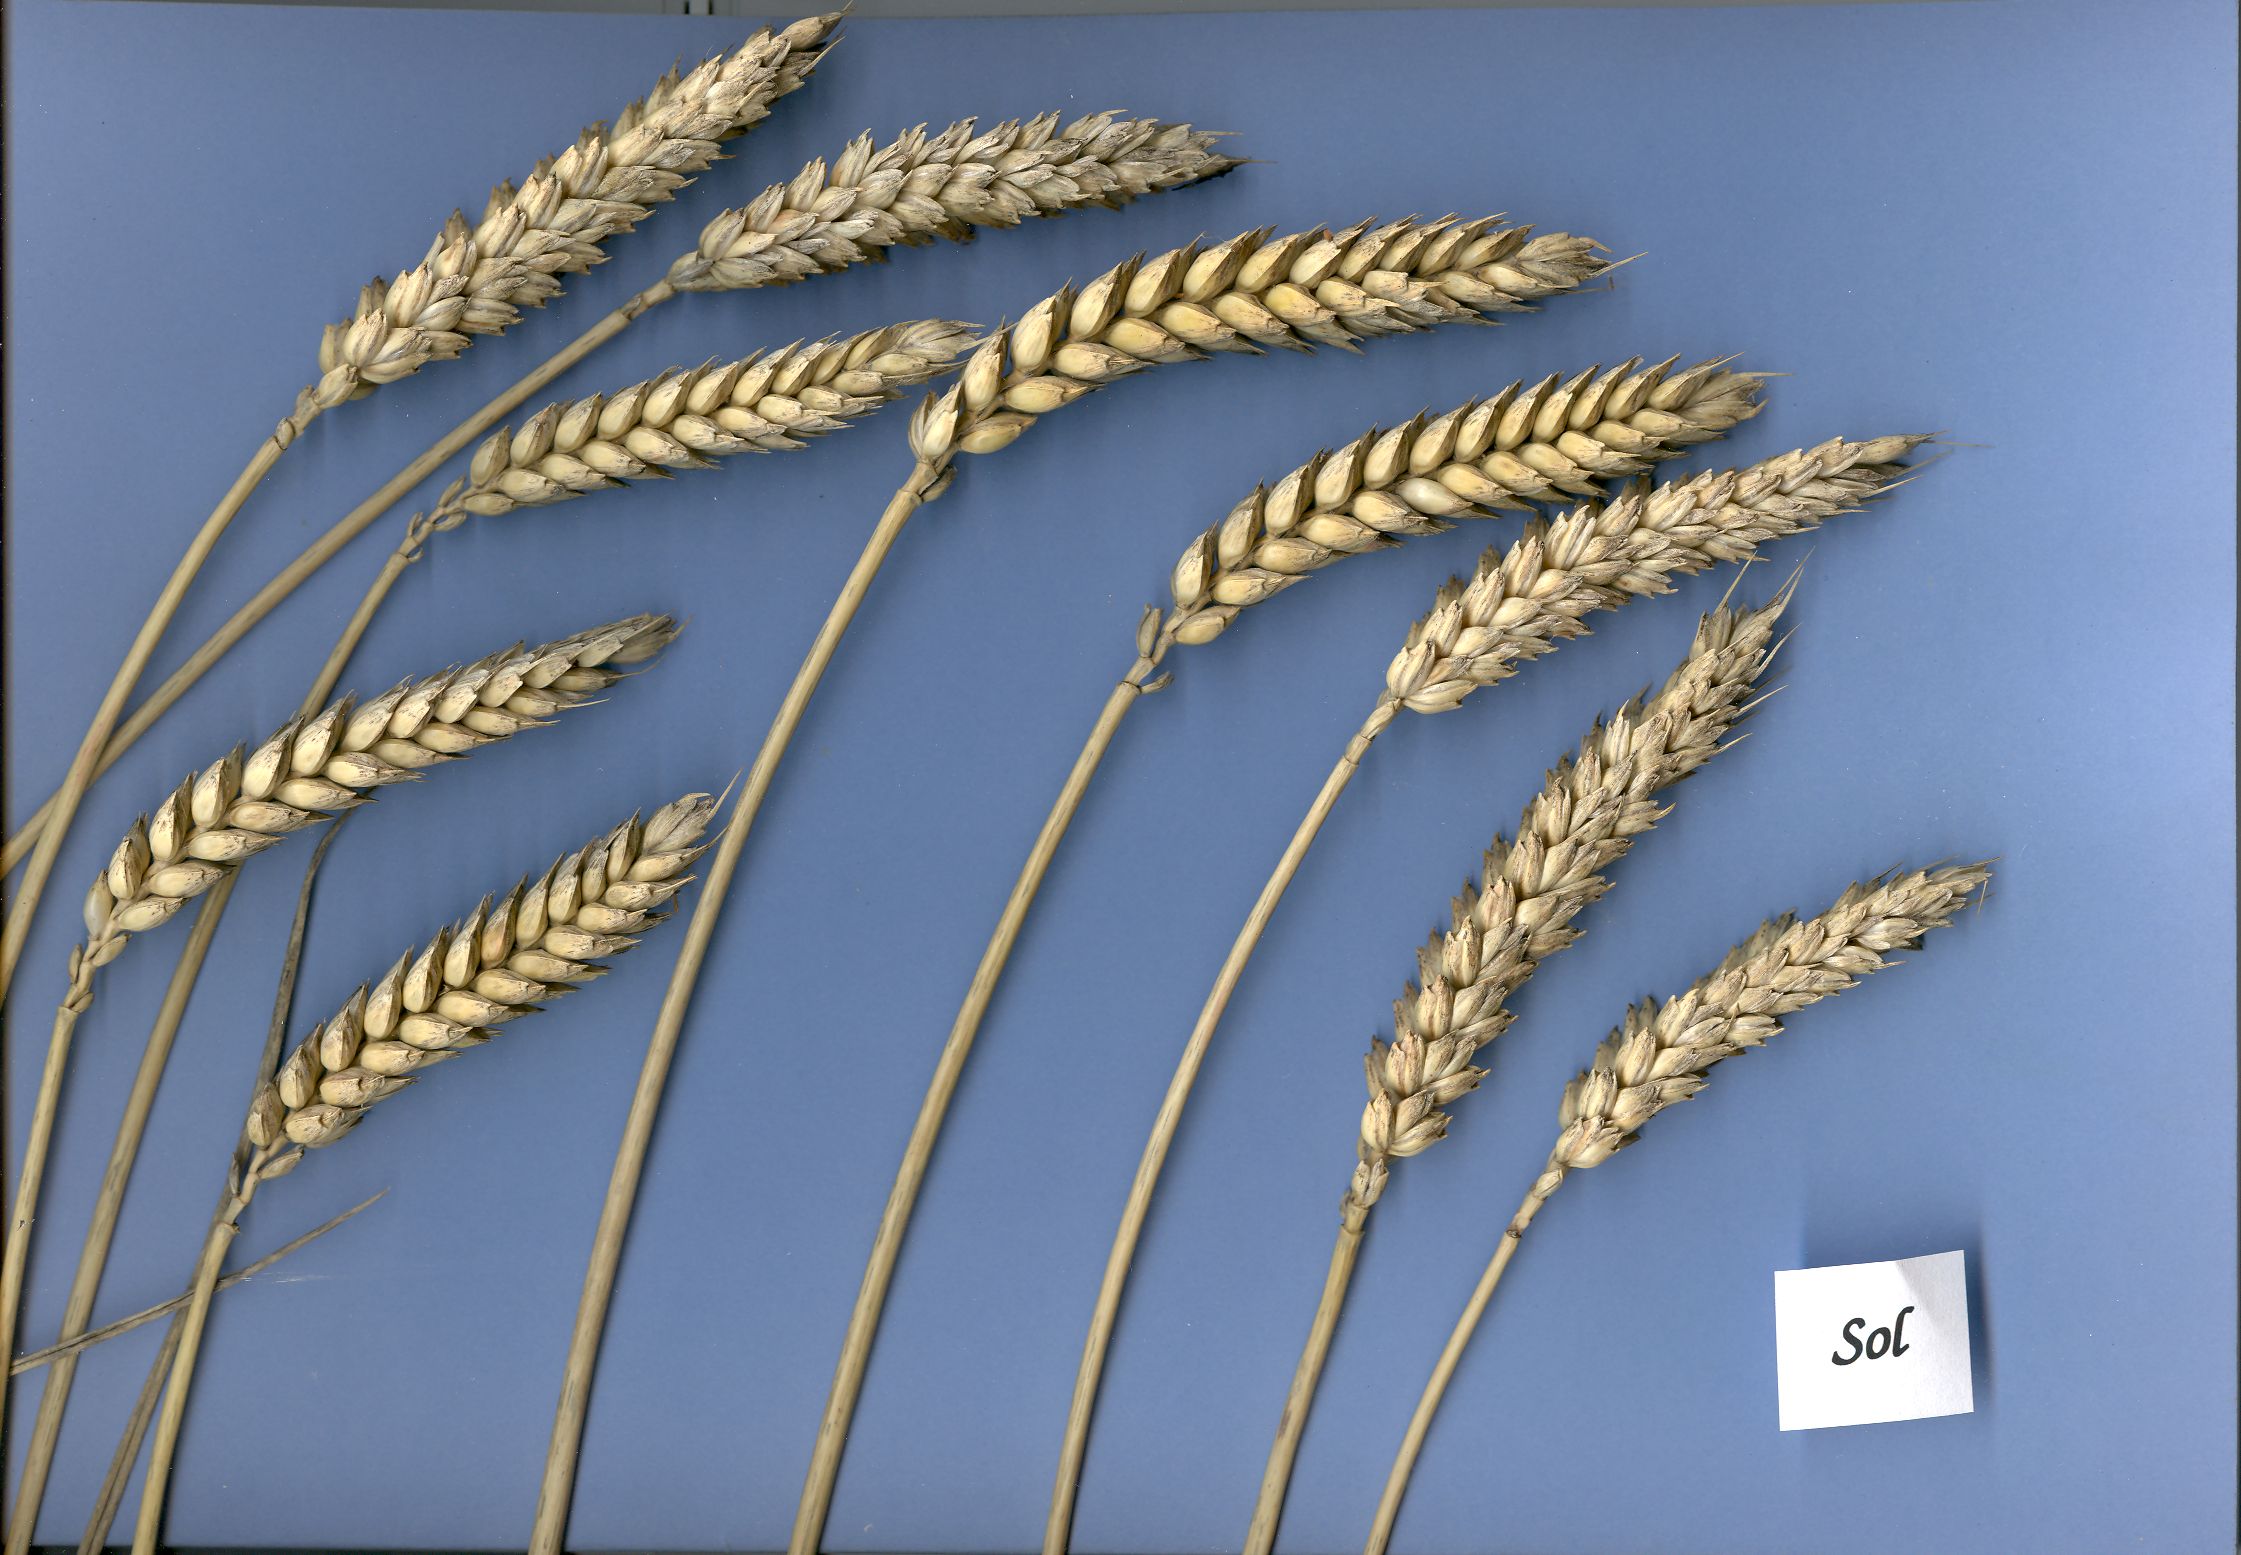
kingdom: Plantae
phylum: Tracheophyta
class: Liliopsida
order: Poales
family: Poaceae
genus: Triticum
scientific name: Triticum aestivum
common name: Common wheat
